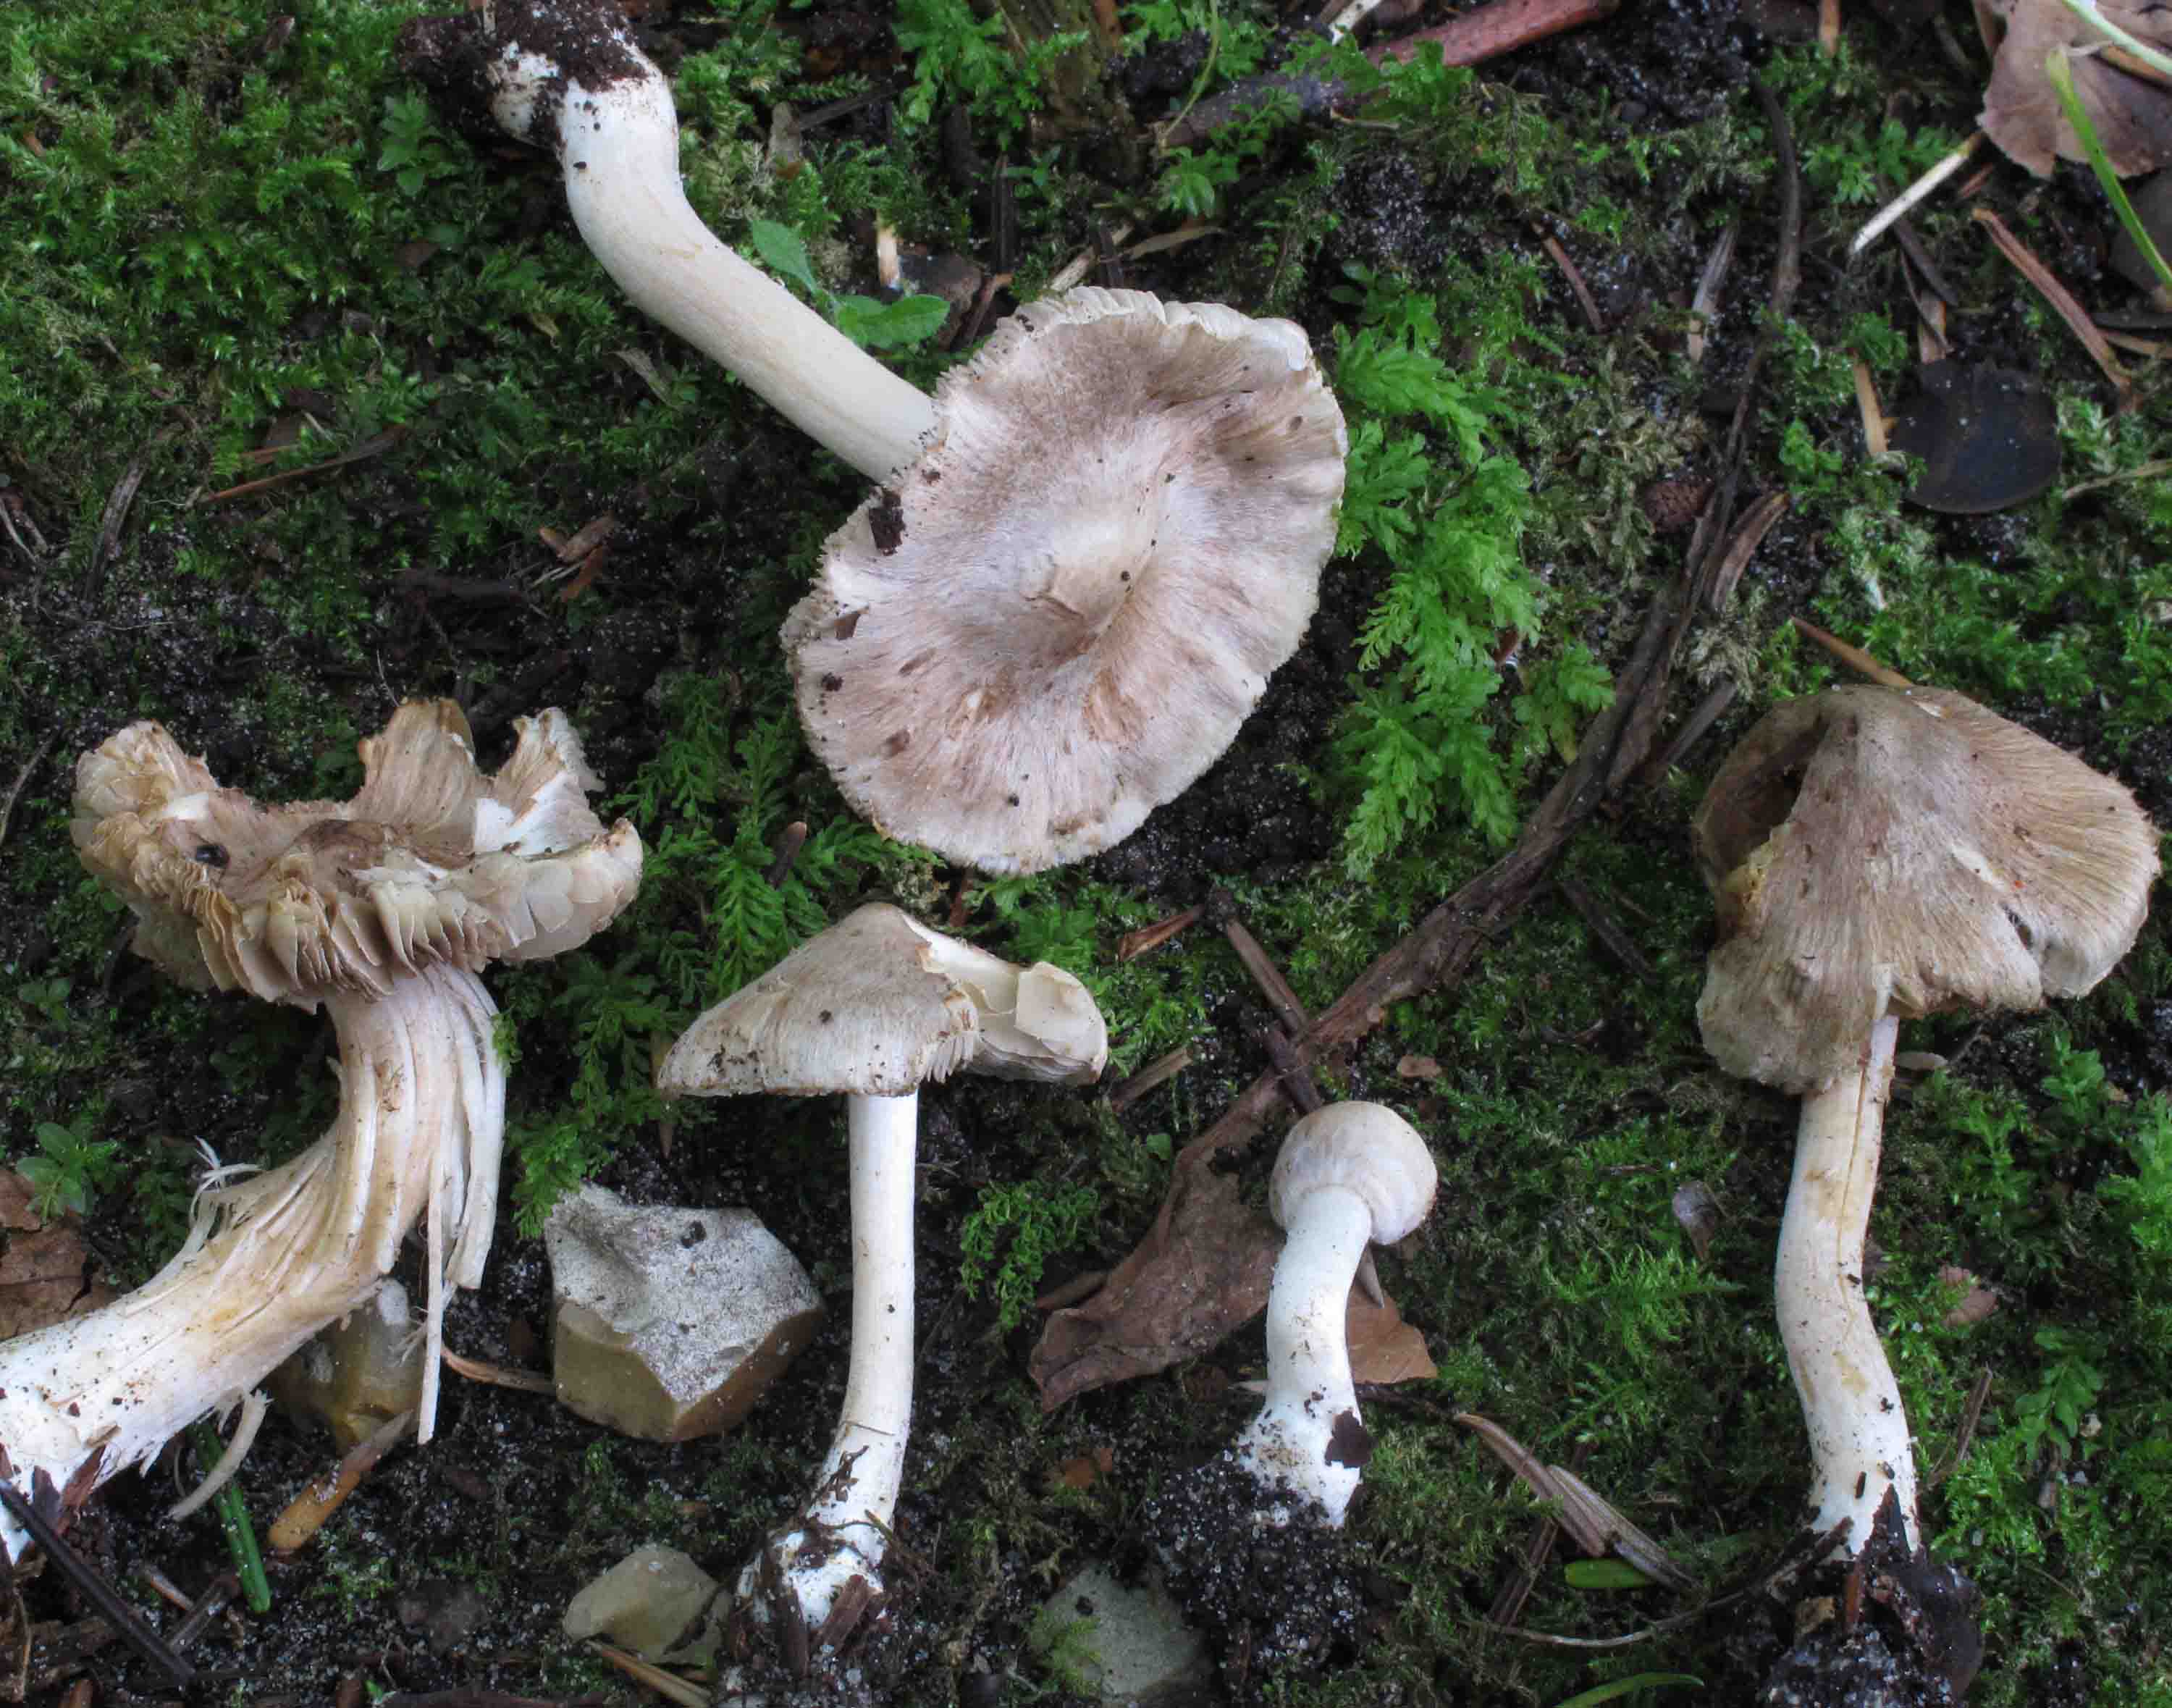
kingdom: Fungi
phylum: Basidiomycota
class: Agaricomycetes
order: Agaricales
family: Inocybaceae
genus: Inocybe
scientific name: Inocybe sindonia
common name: bleg trævlhat
